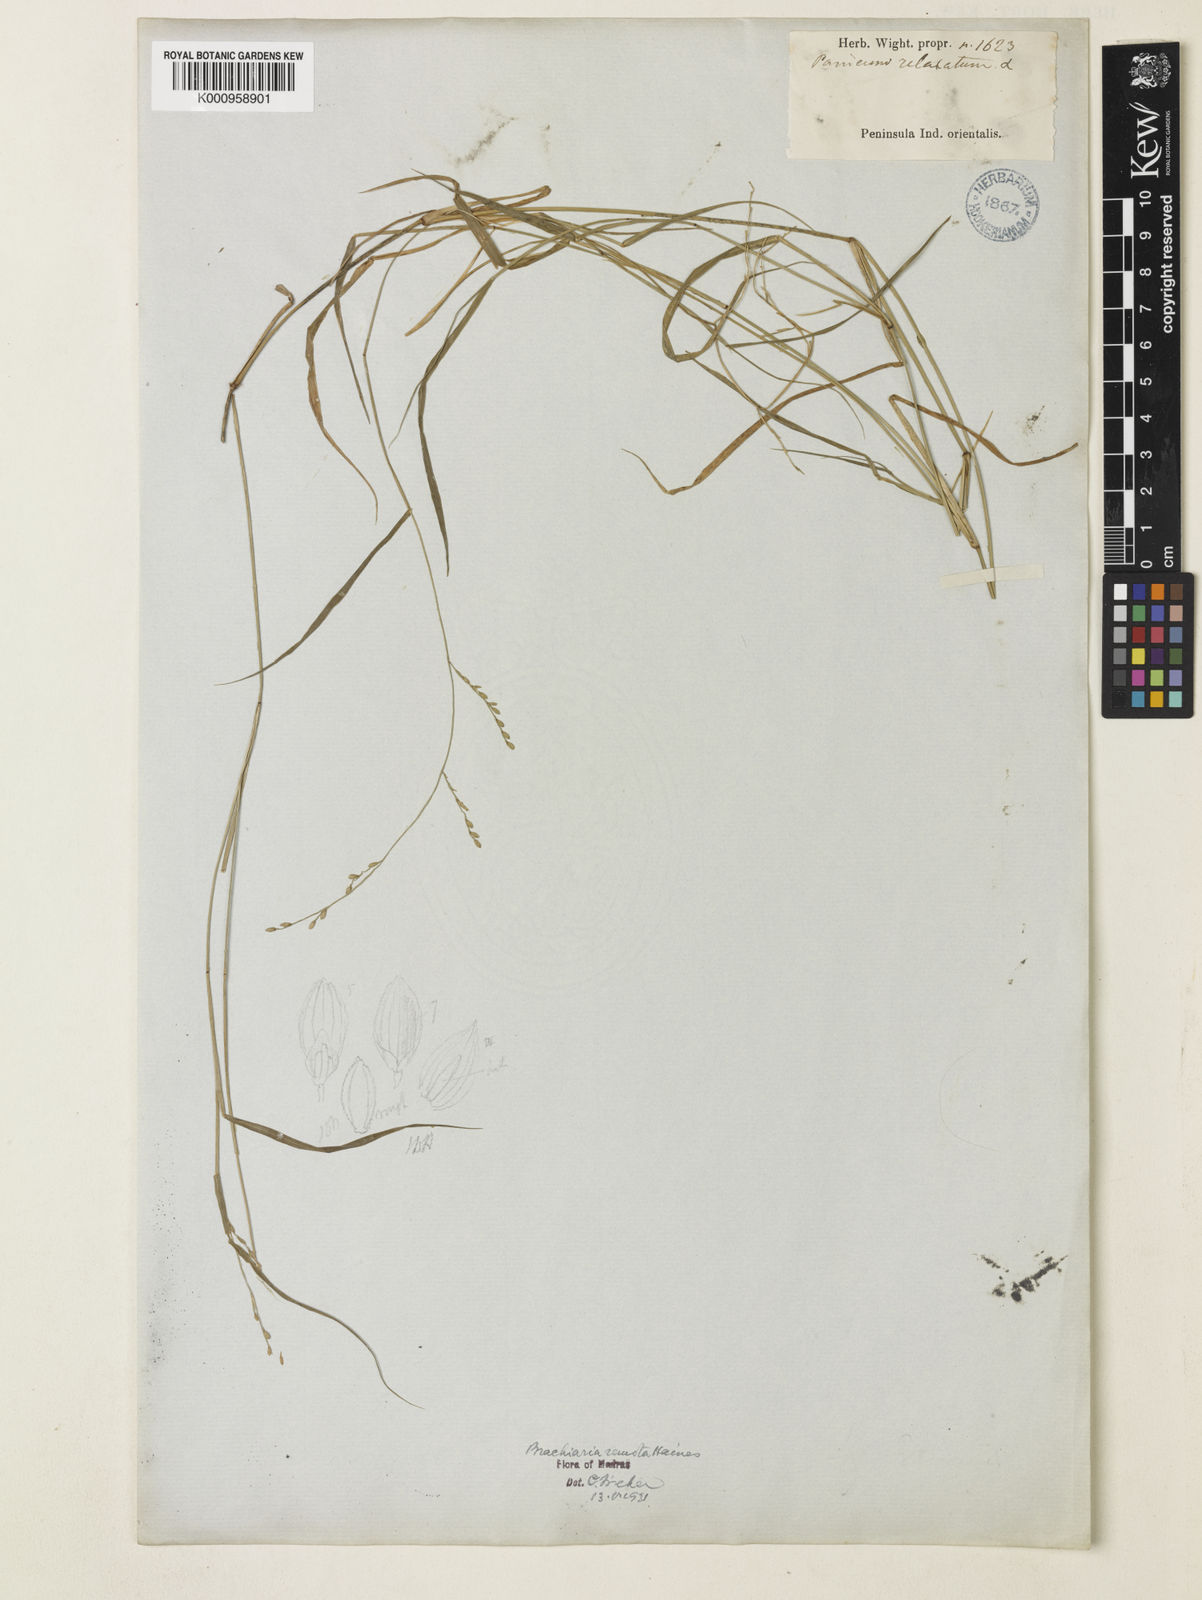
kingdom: Plantae
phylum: Tracheophyta
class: Liliopsida
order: Poales
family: Poaceae
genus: Urochloa
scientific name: Urochloa Brachiaria remota
